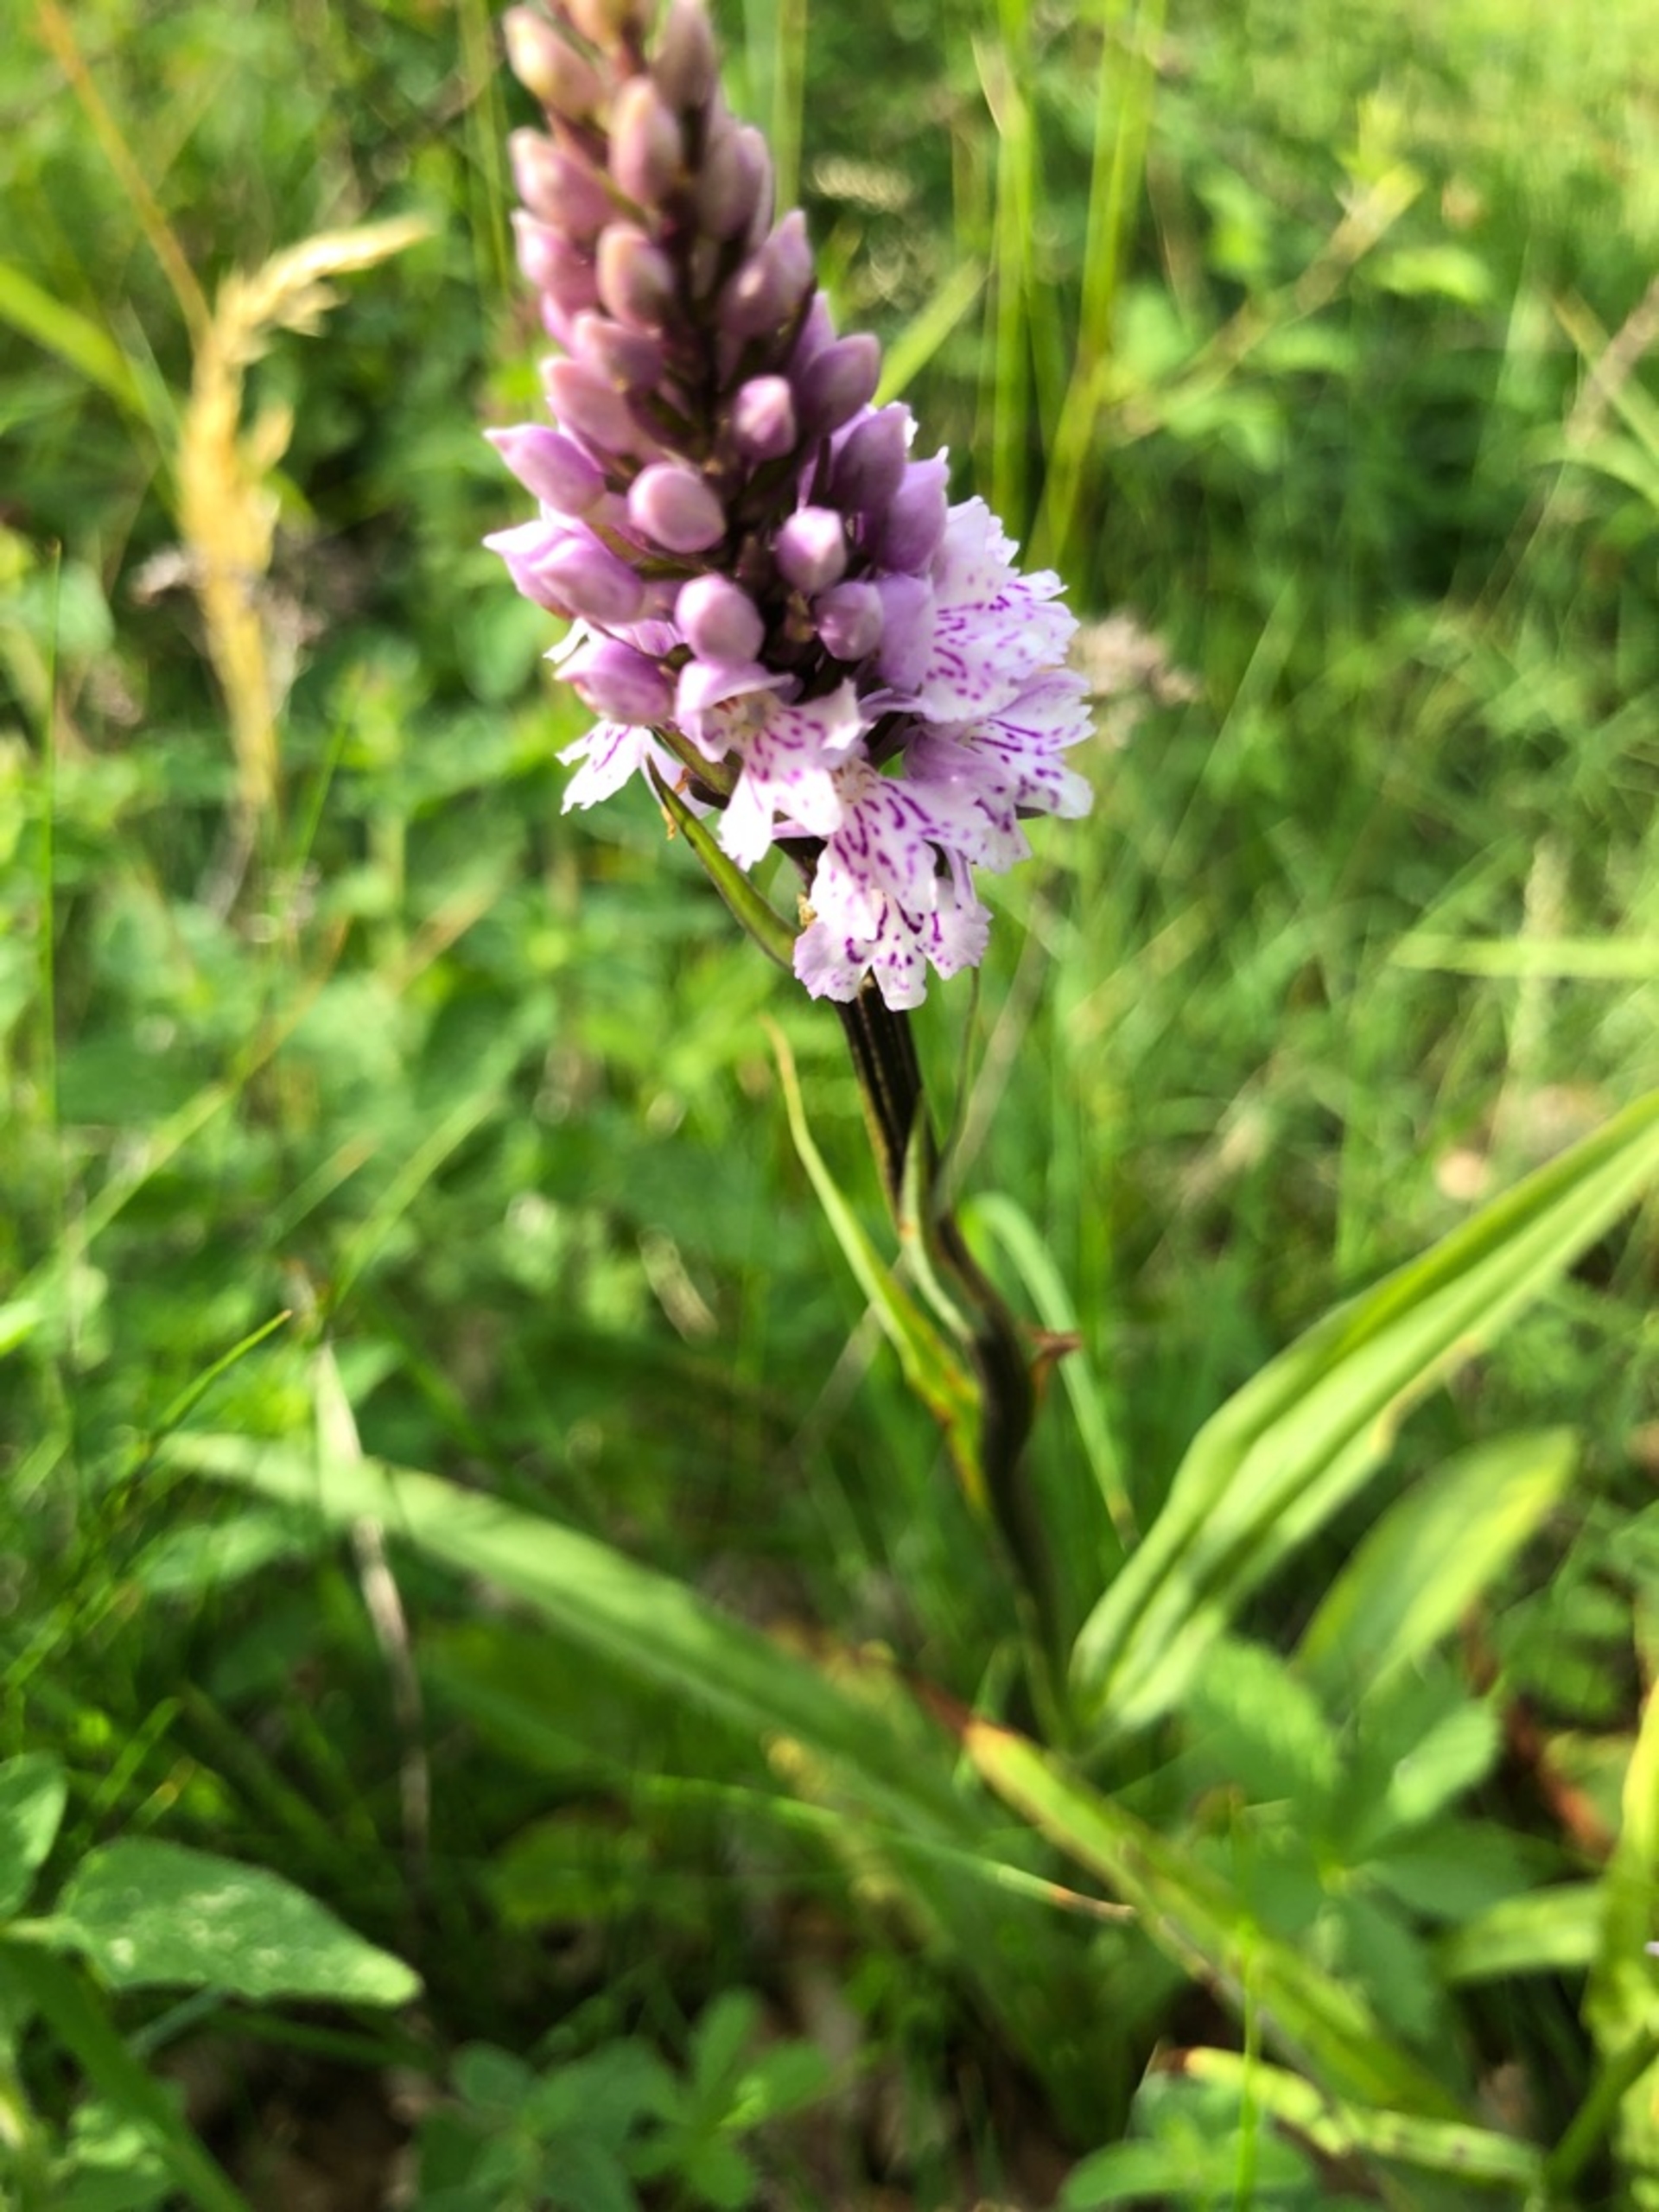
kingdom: Plantae
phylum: Tracheophyta
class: Liliopsida
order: Asparagales
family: Orchidaceae
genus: Dactylorhiza
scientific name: Dactylorhiza maculata
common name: Skov-gøgeurt
